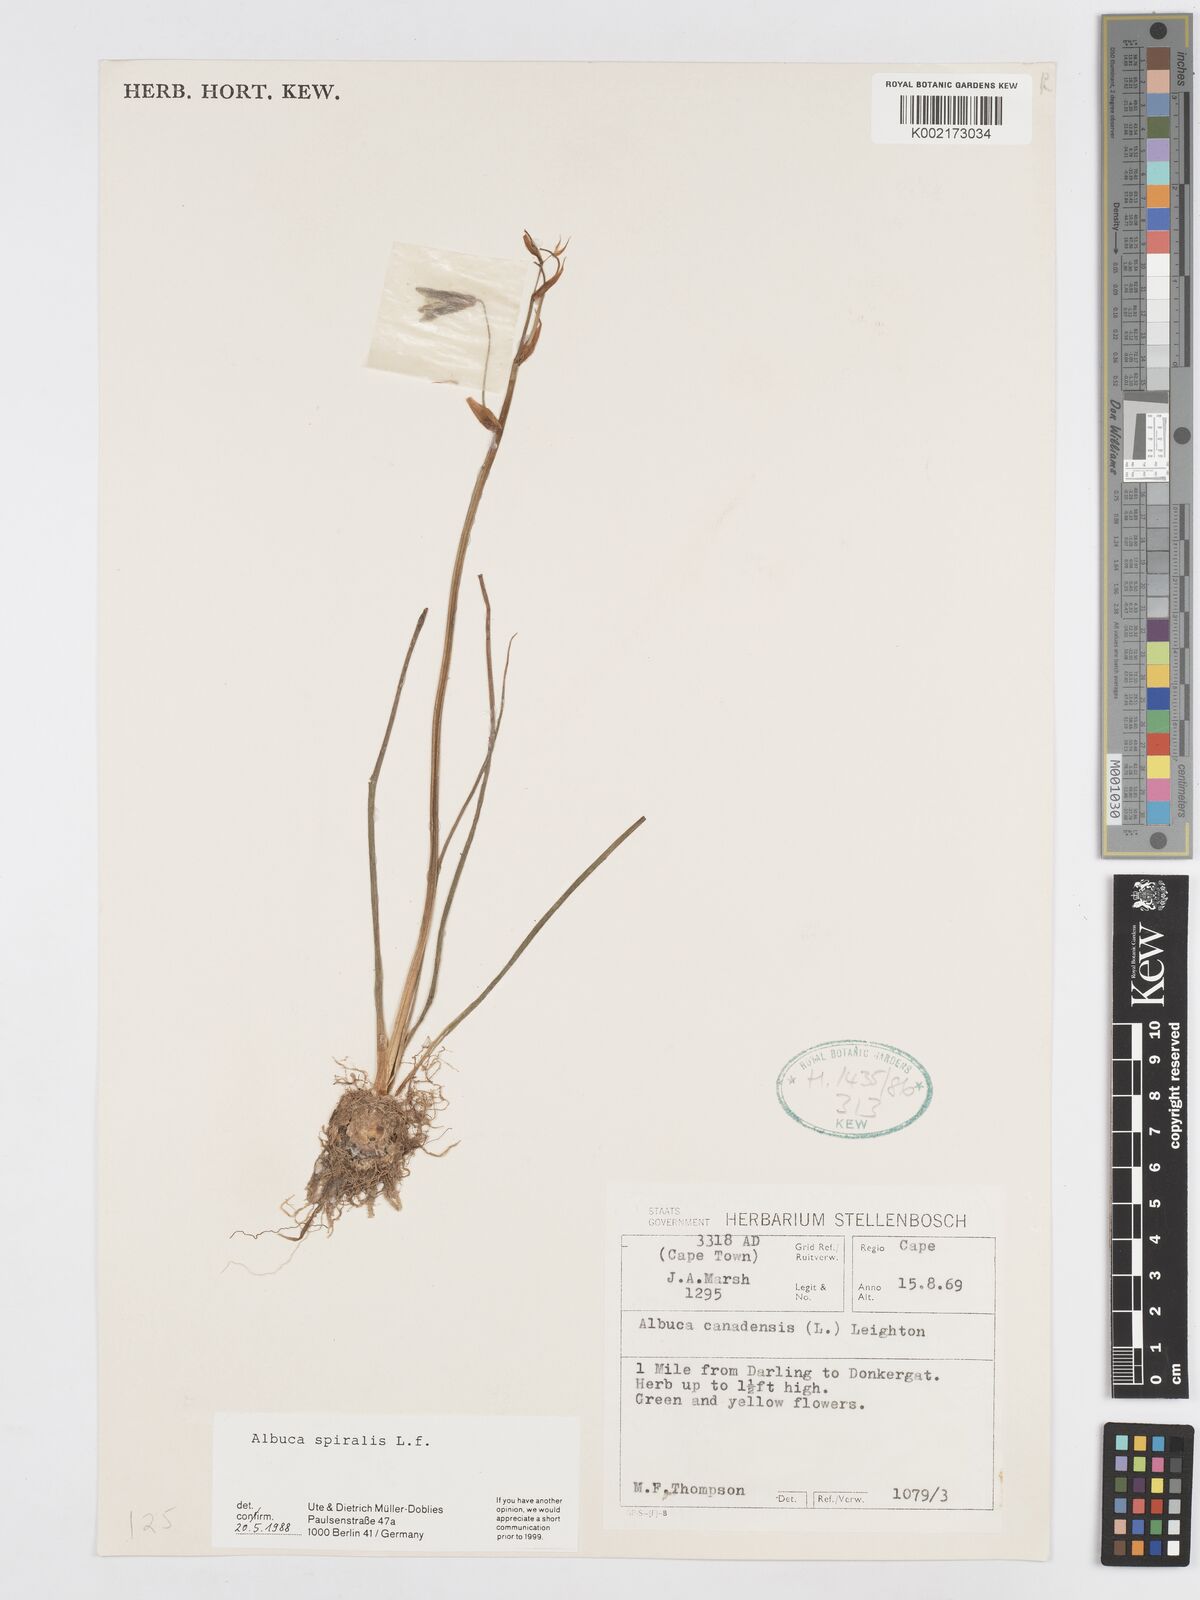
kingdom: Plantae
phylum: Tracheophyta
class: Liliopsida
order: Asparagales
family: Asparagaceae
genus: Albuca
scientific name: Albuca spiralis
